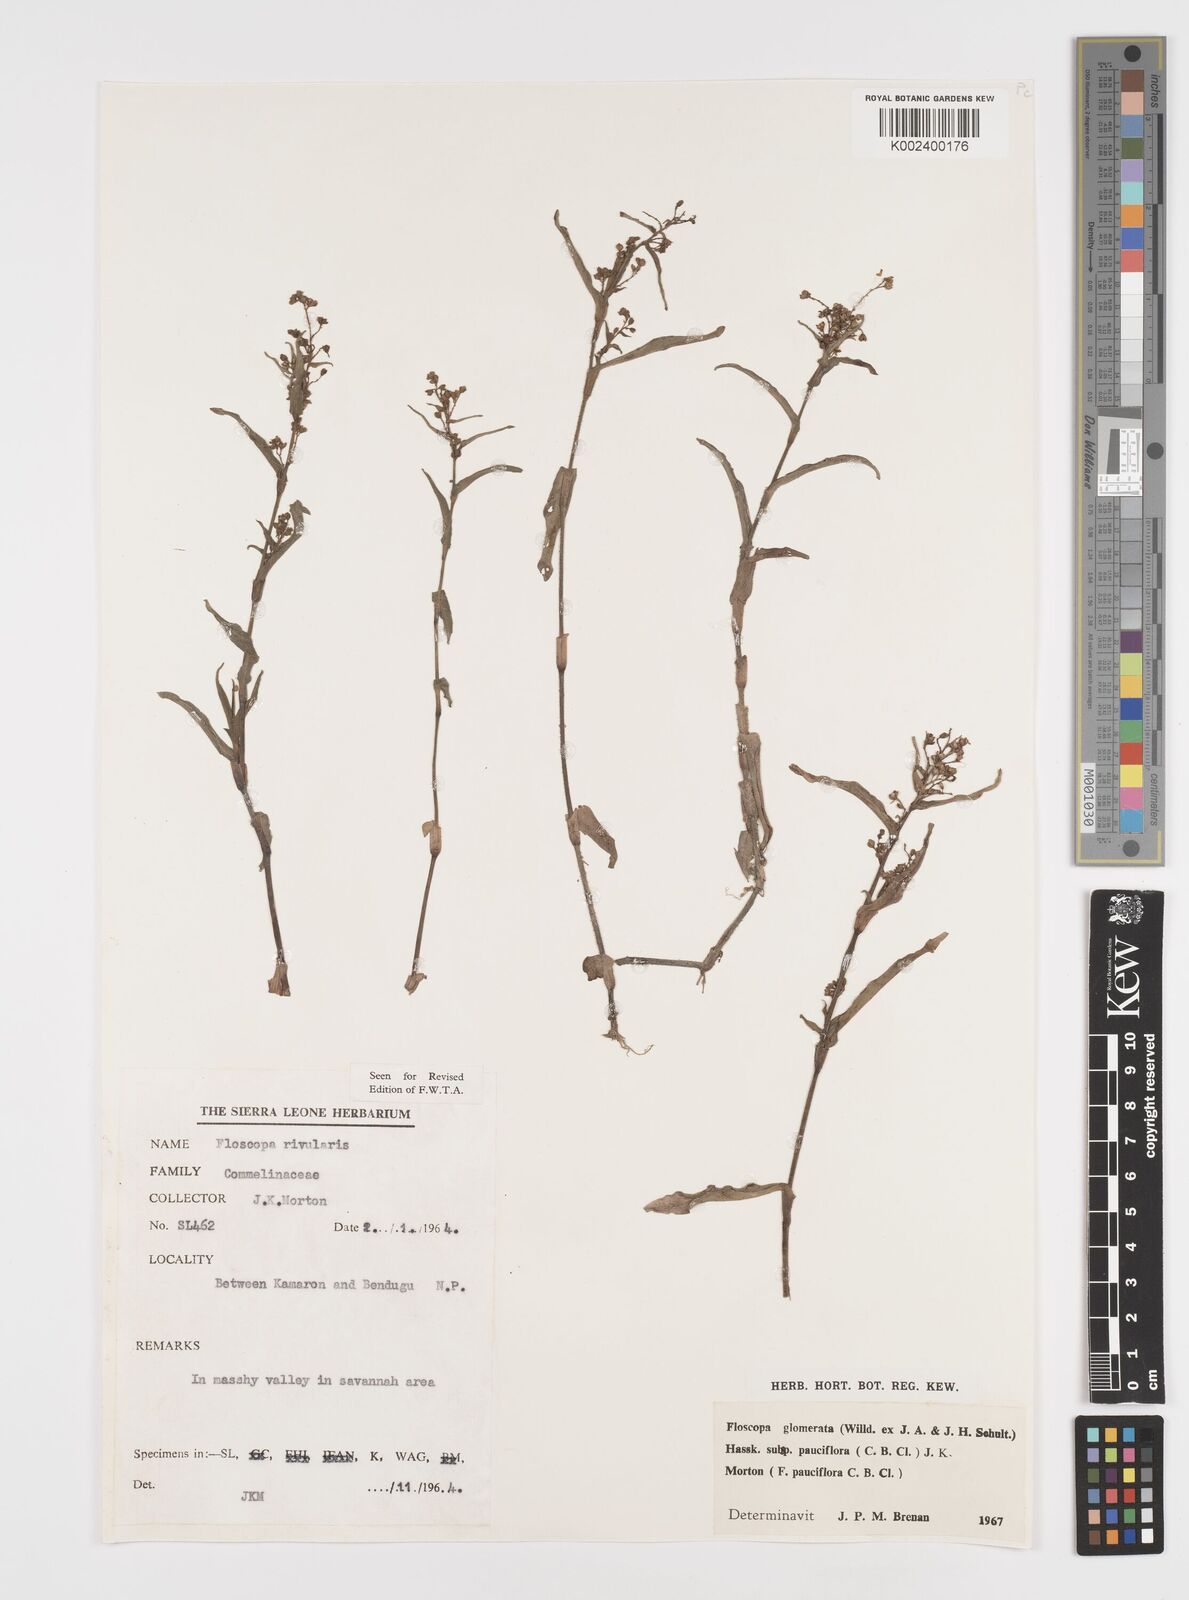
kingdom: Plantae
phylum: Tracheophyta
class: Liliopsida
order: Commelinales
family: Commelinaceae
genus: Floscopa
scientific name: Floscopa glomerata
